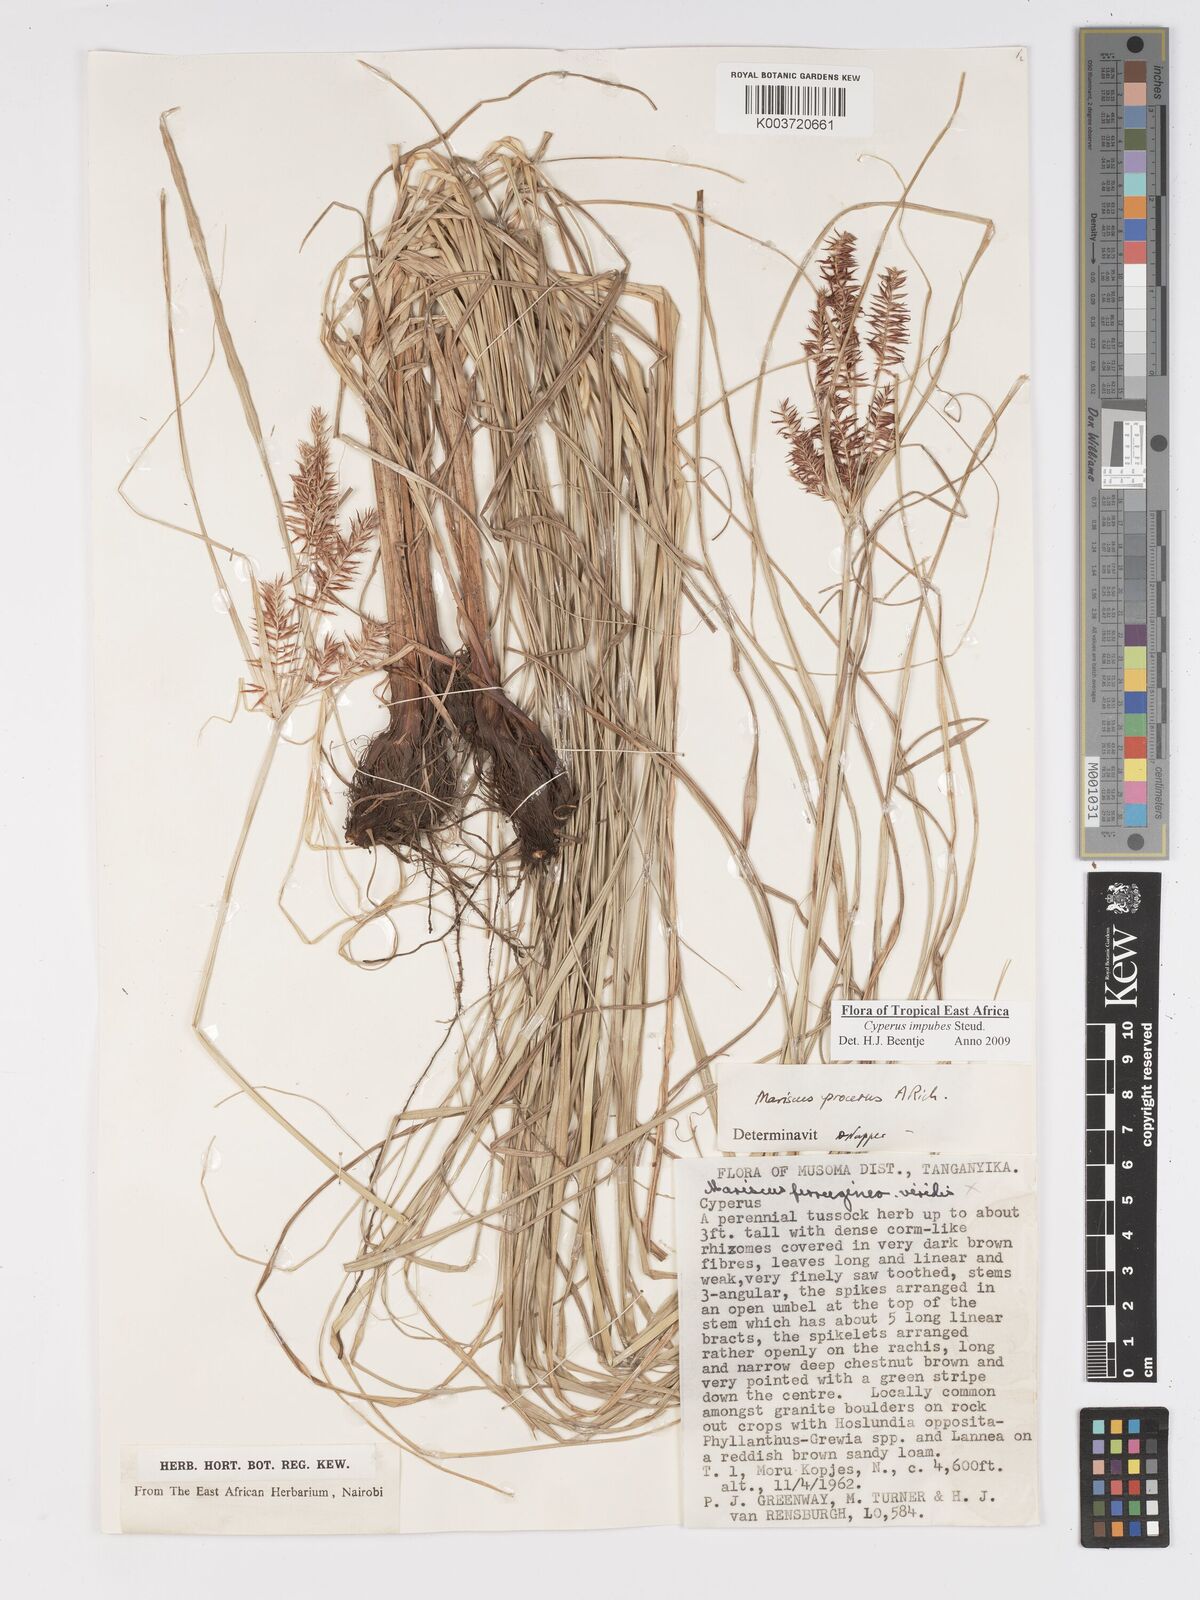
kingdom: Plantae
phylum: Tracheophyta
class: Liliopsida
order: Poales
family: Cyperaceae
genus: Cyperus
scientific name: Cyperus impubes
